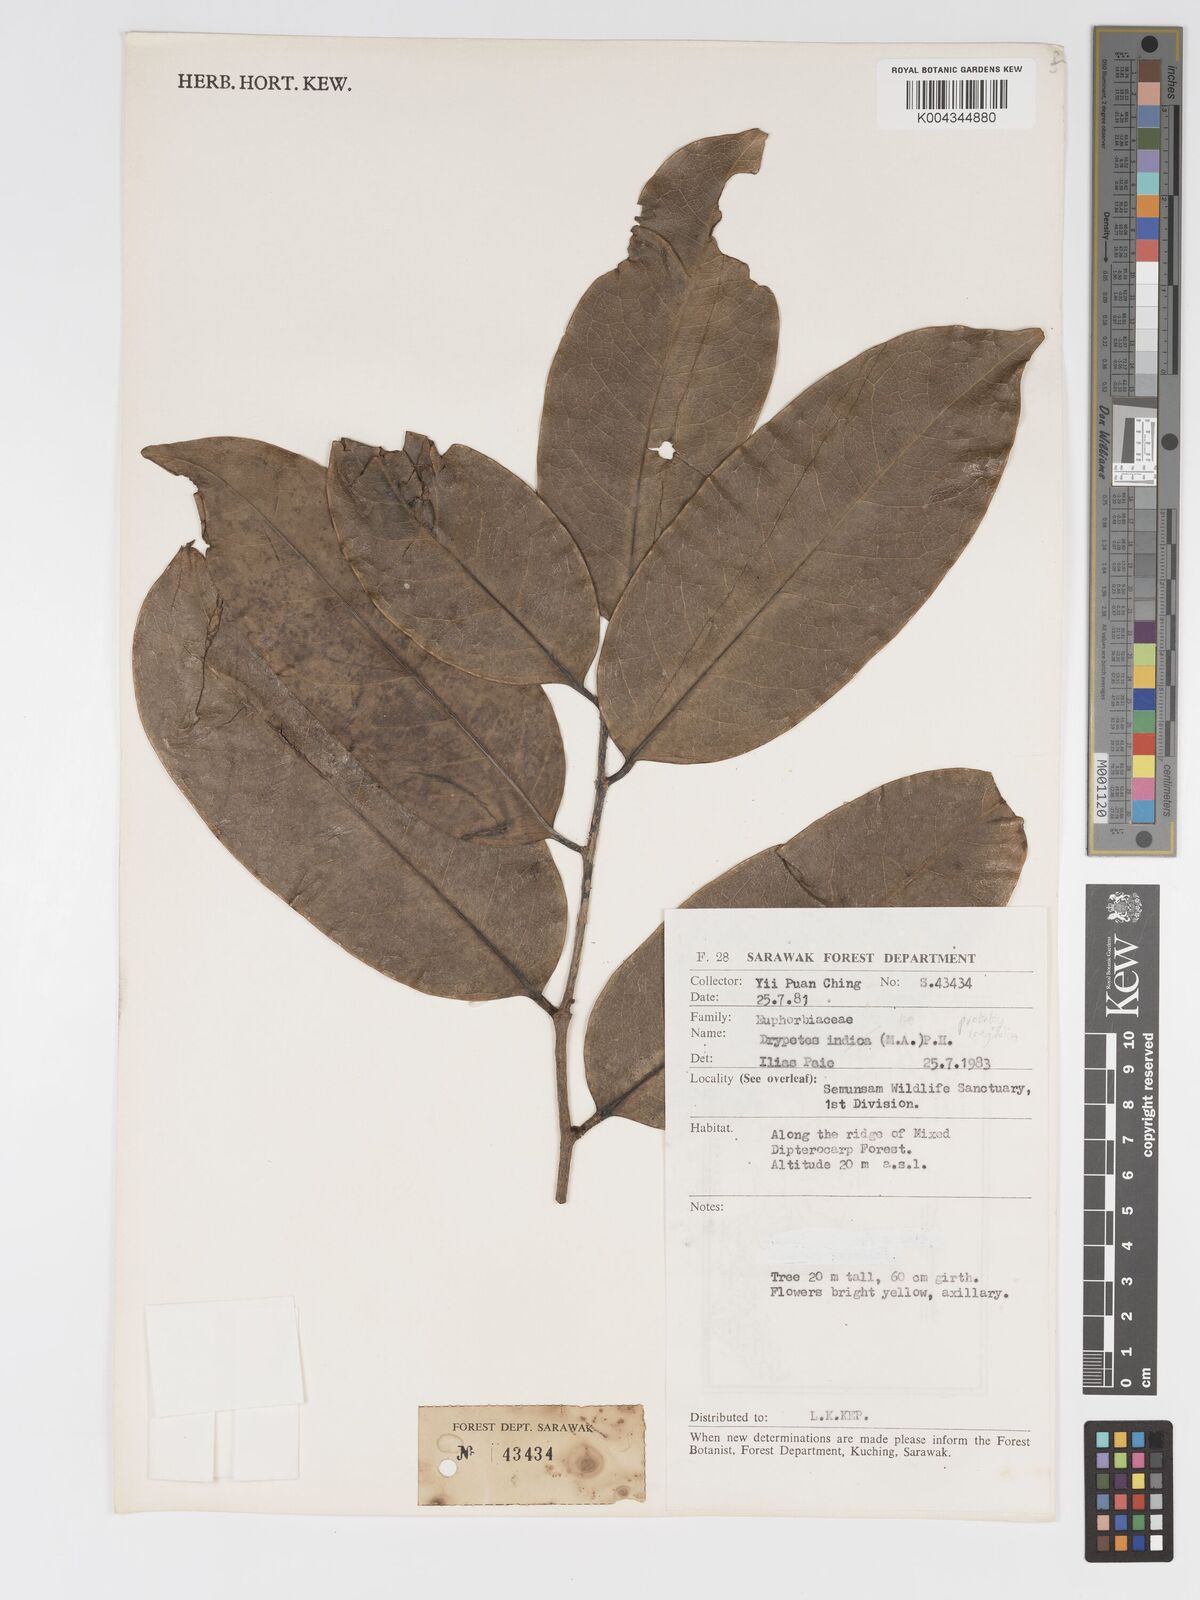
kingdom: Plantae
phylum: Tracheophyta
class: Magnoliopsida
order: Malpighiales
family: Putranjivaceae
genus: Drypetes
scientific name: Drypetes
